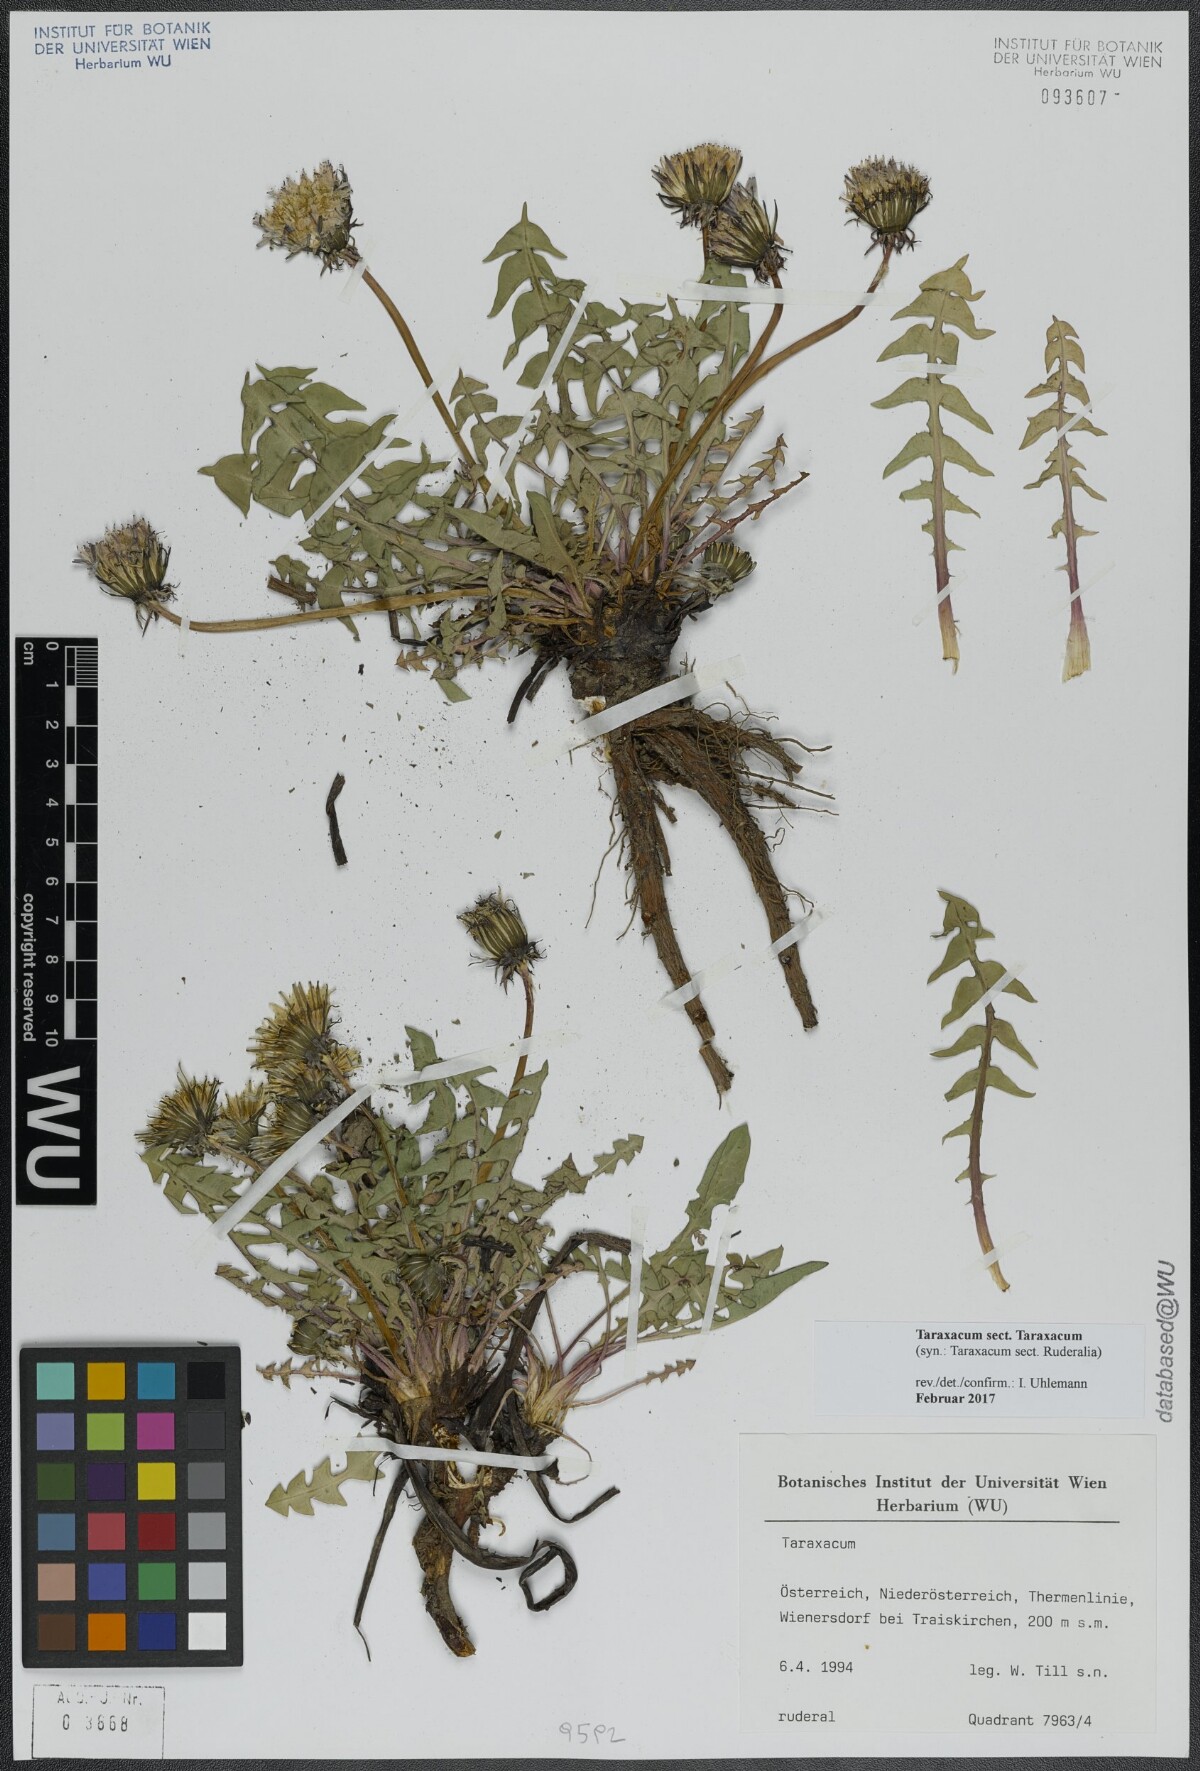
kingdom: Plantae
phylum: Tracheophyta
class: Magnoliopsida
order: Asterales
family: Asteraceae
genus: Taraxacum
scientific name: Taraxacum
